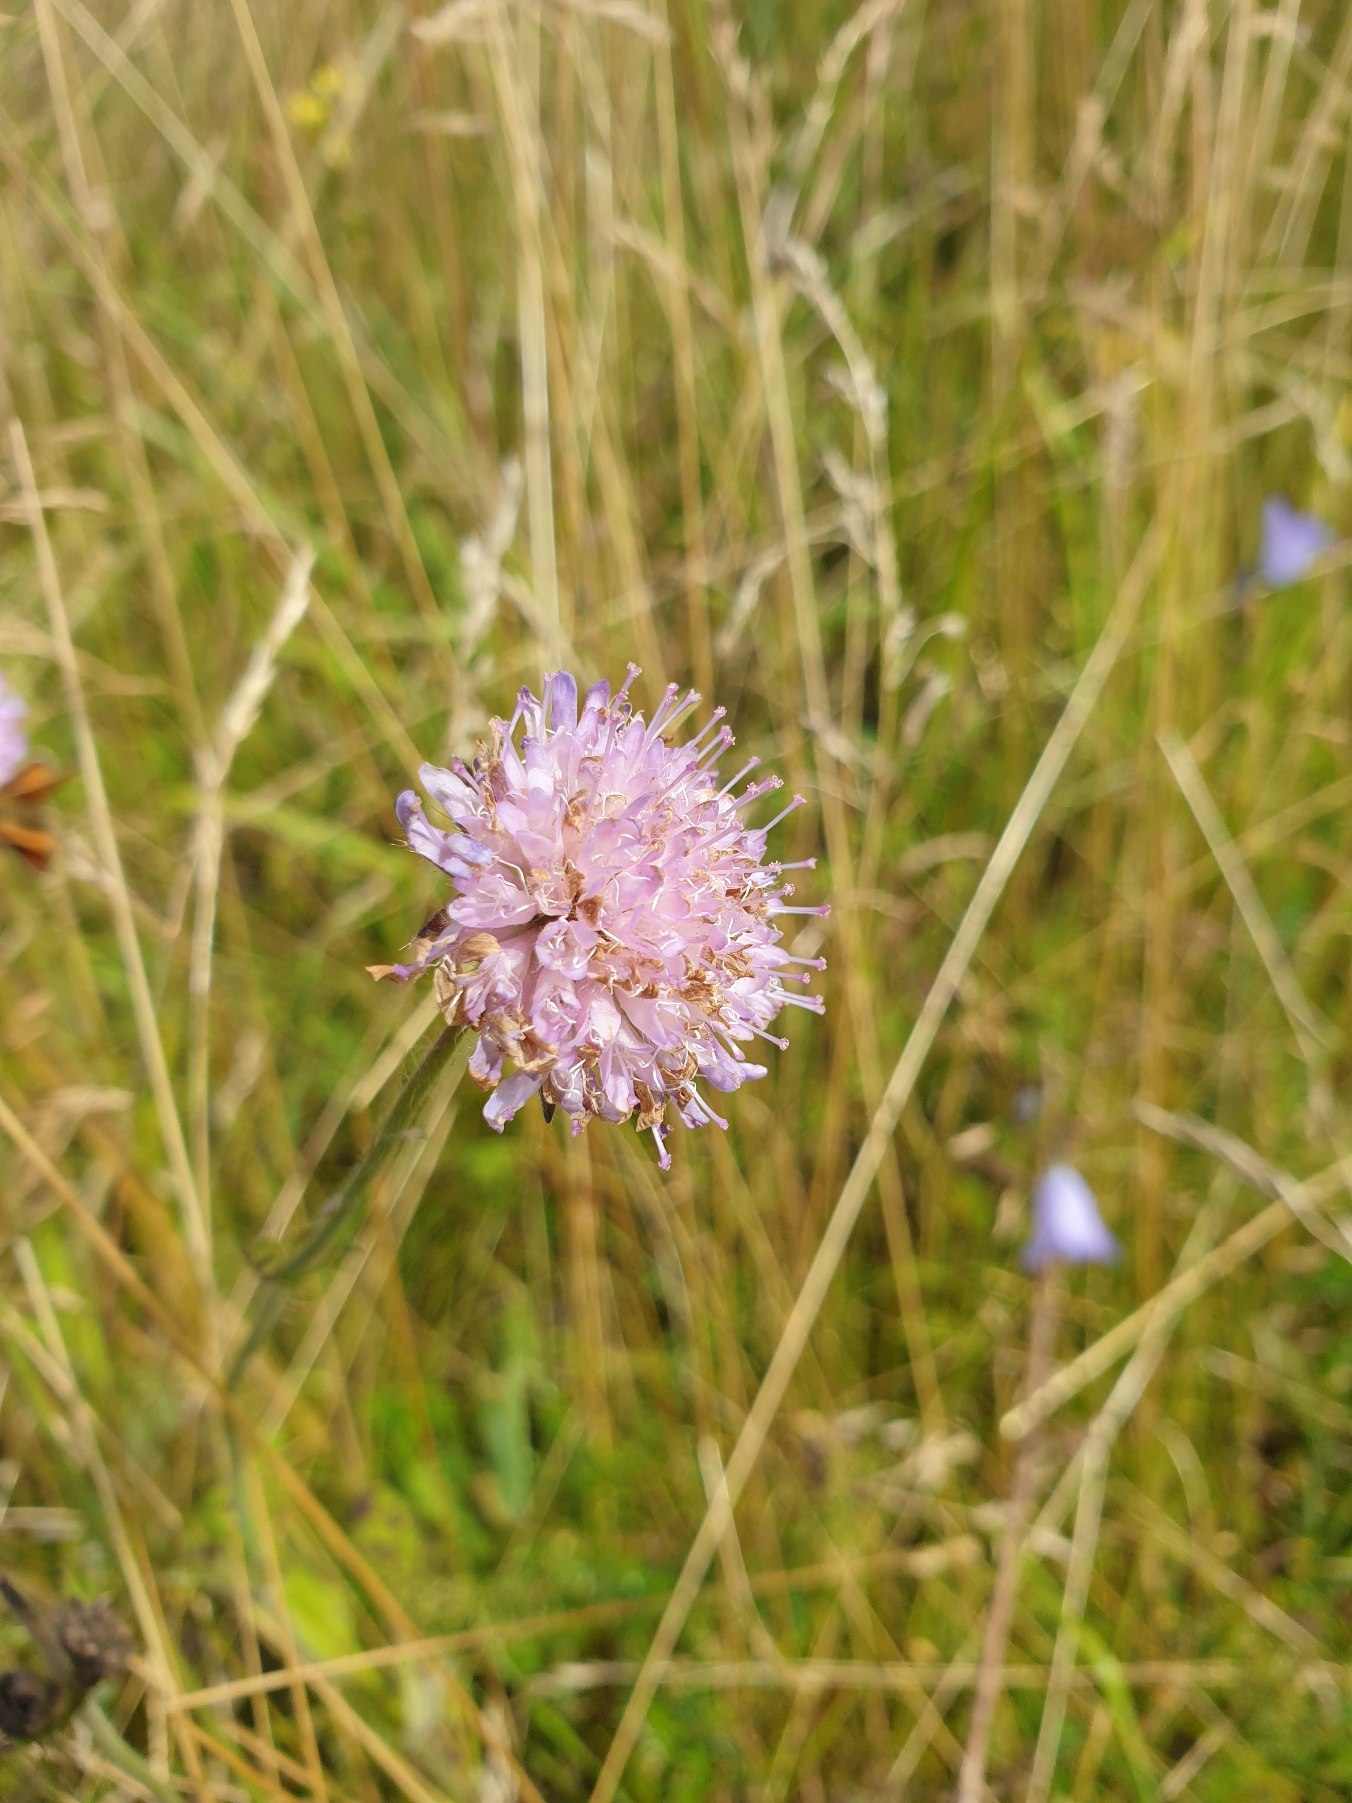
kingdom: Plantae
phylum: Tracheophyta
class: Magnoliopsida
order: Dipsacales
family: Caprifoliaceae
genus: Knautia
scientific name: Knautia arvensis
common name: Blåhat
